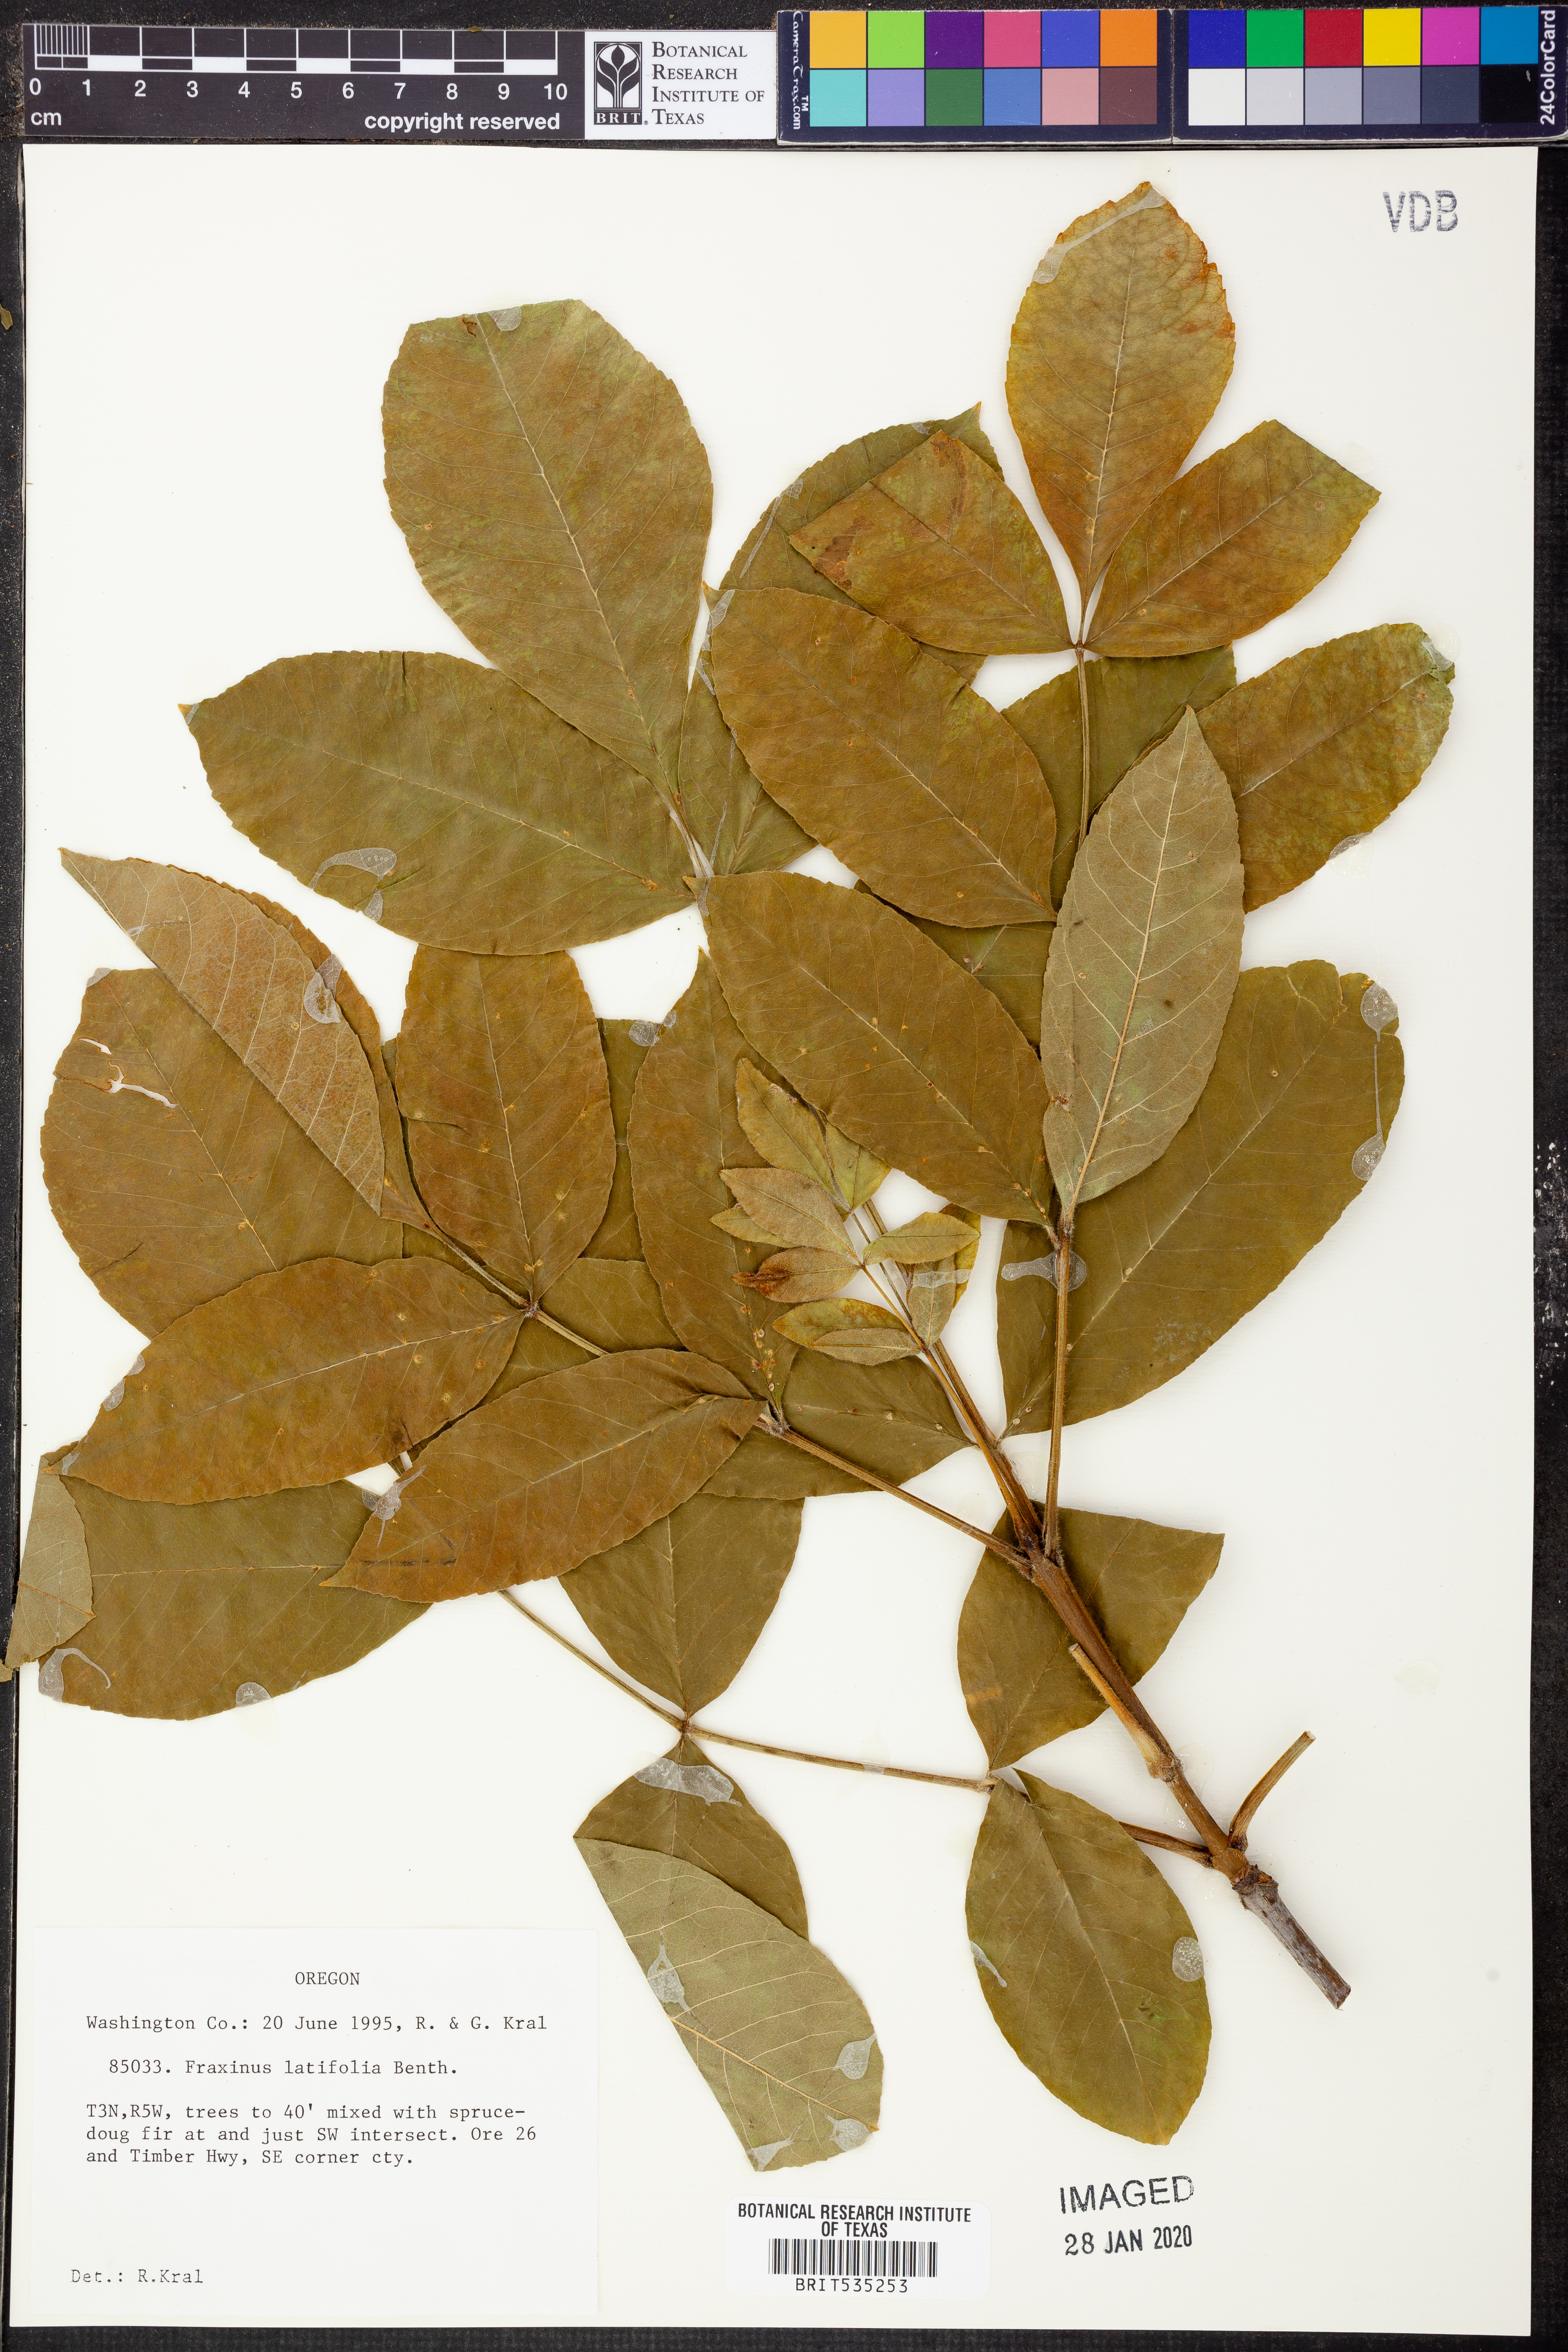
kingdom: Plantae
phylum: Tracheophyta
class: Magnoliopsida
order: Lamiales
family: Oleaceae
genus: Fraxinus
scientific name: Fraxinus latifolia
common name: Oregon ash
